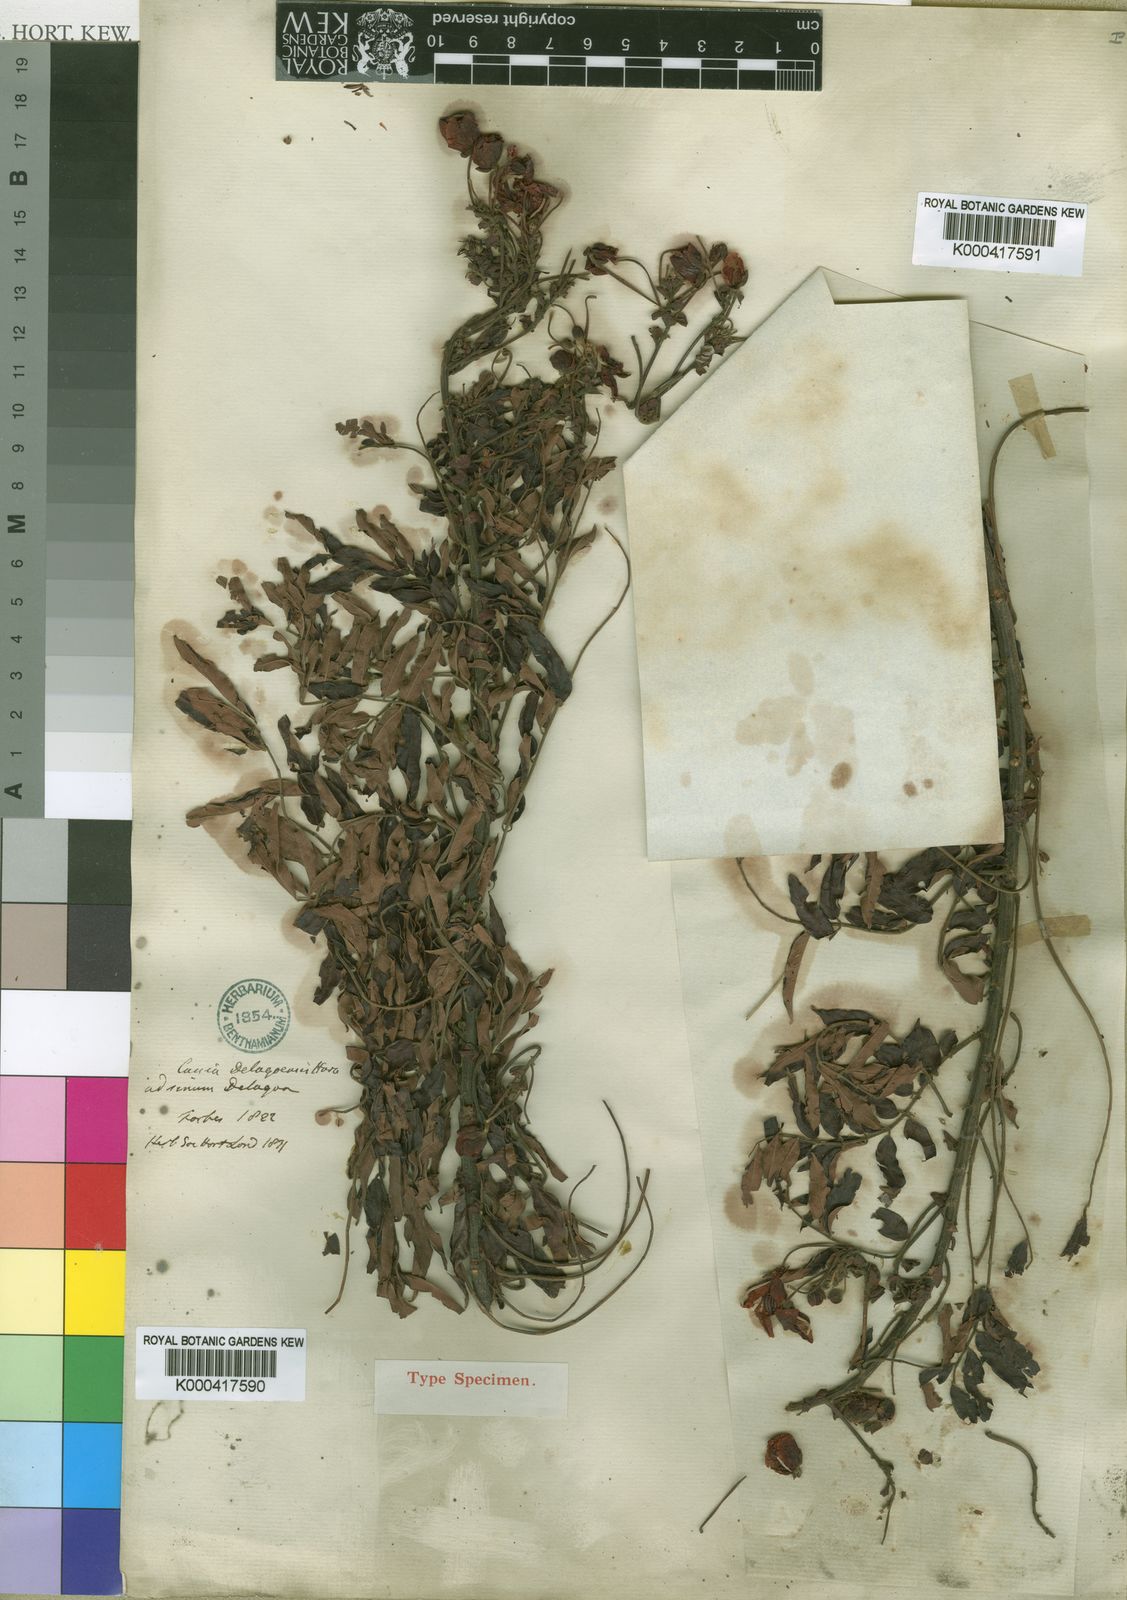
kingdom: Plantae
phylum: Tracheophyta
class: Magnoliopsida
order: Fabales
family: Fabaceae
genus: Senna
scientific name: Senna petersiana
